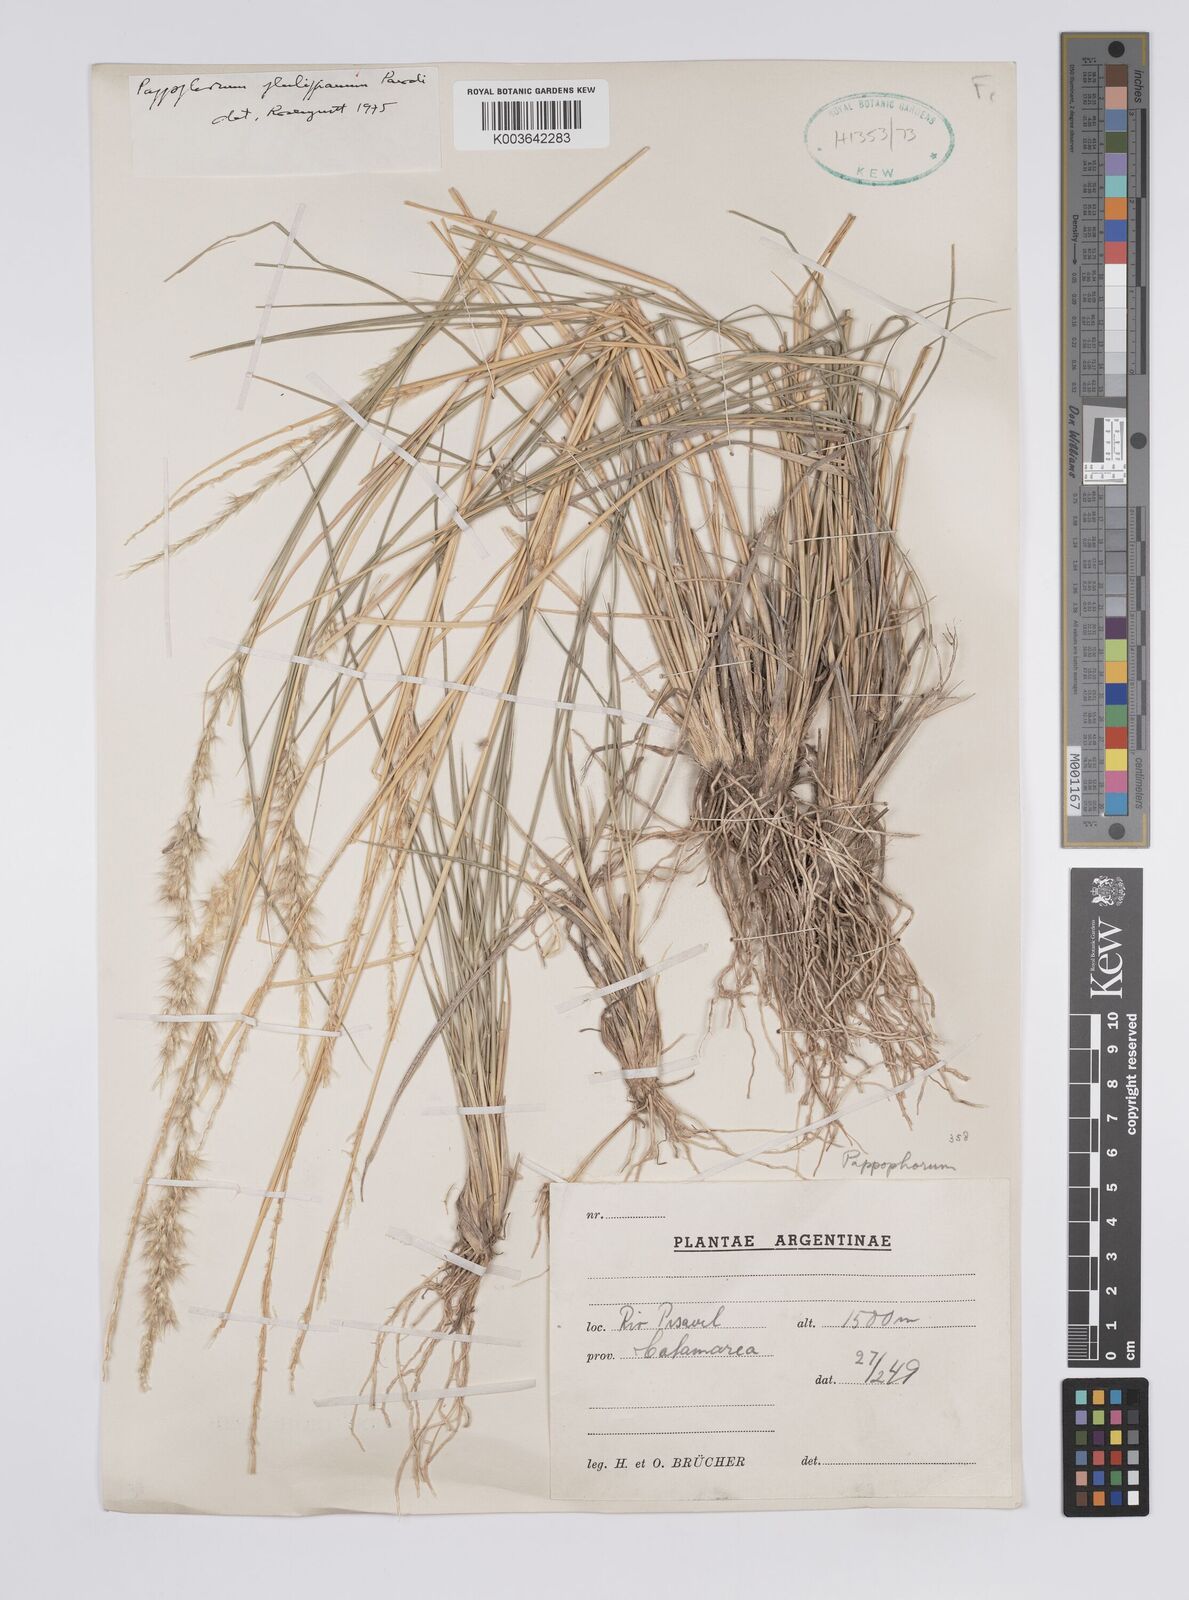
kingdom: Plantae
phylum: Tracheophyta
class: Liliopsida
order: Poales
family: Poaceae
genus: Pappophorum
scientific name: Pappophorum philippianum
